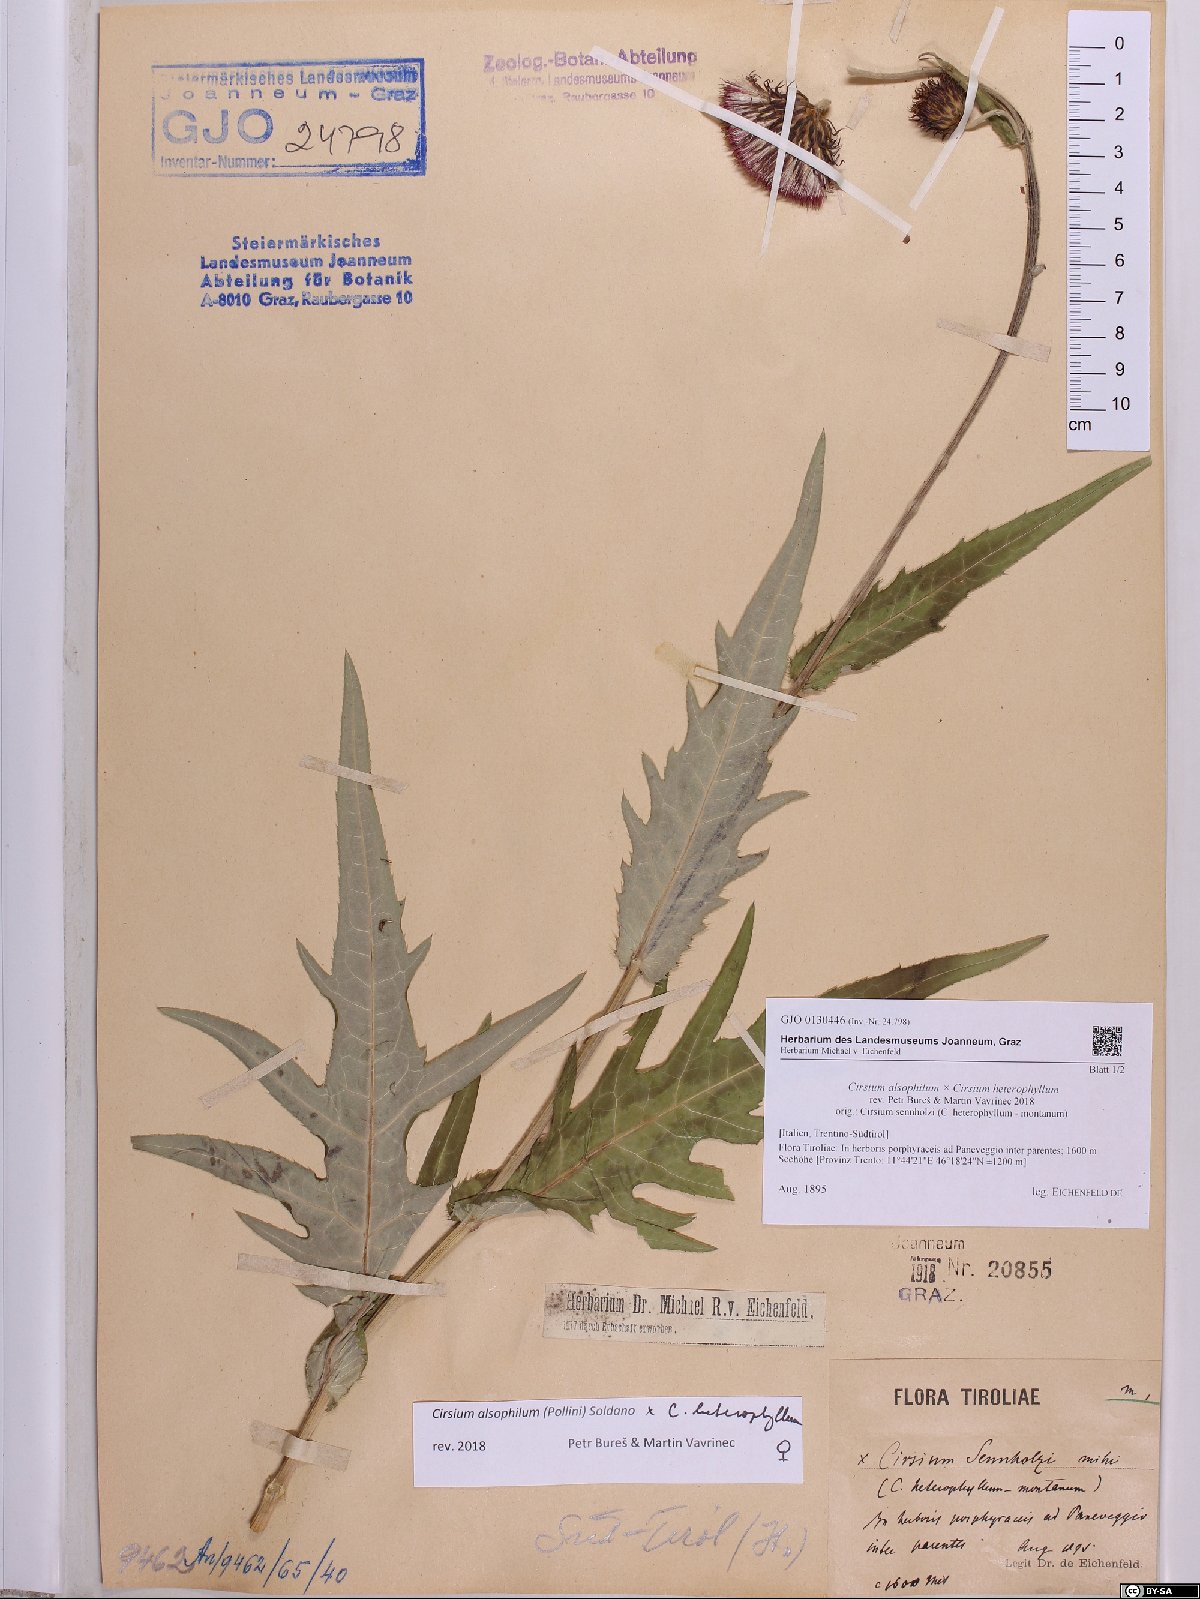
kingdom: Plantae
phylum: Tracheophyta
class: Magnoliopsida
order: Asterales
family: Asteraceae
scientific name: Asteraceae
